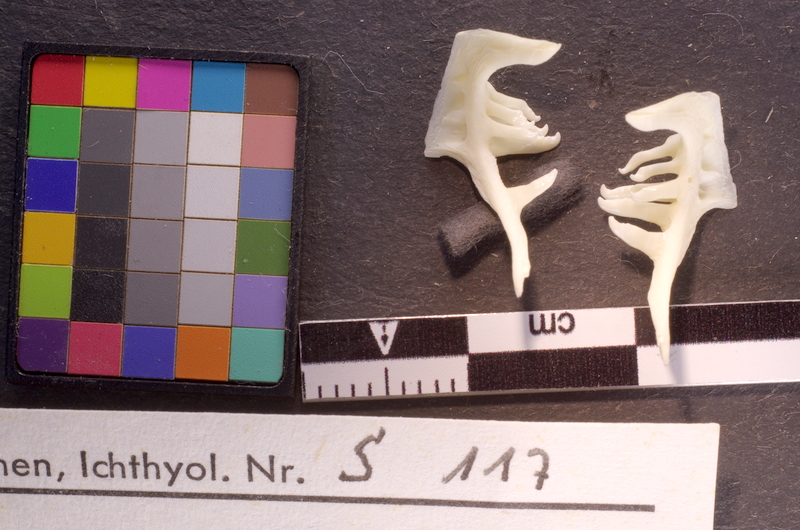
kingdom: Animalia
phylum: Chordata
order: Cypriniformes
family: Cyprinidae
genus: Squalius
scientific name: Squalius cephalus
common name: Chub
